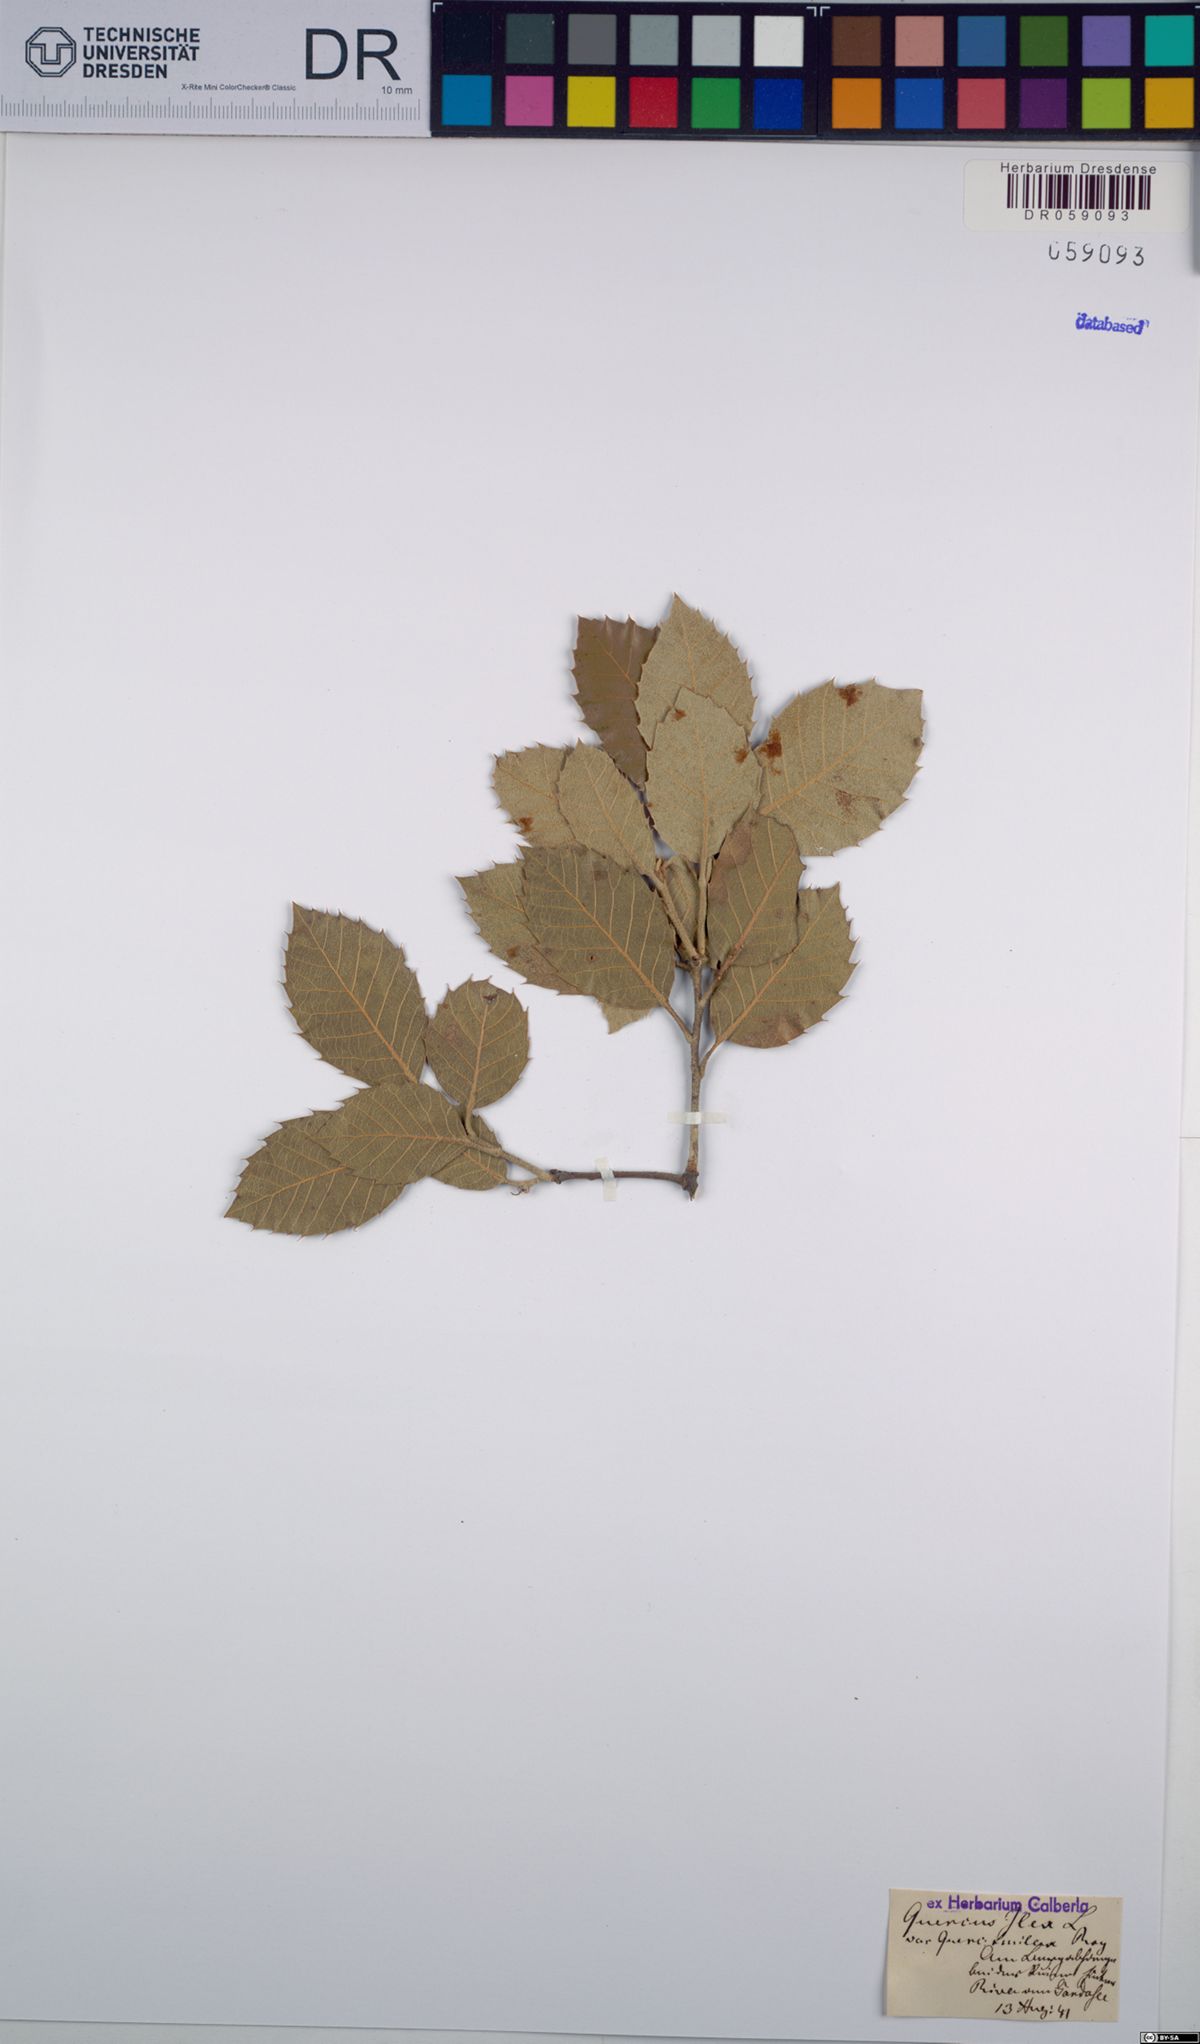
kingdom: Plantae
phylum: Tracheophyta
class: Magnoliopsida
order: Fagales
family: Fagaceae
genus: Quercus
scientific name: Quercus ilex
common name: Evergreen oak
